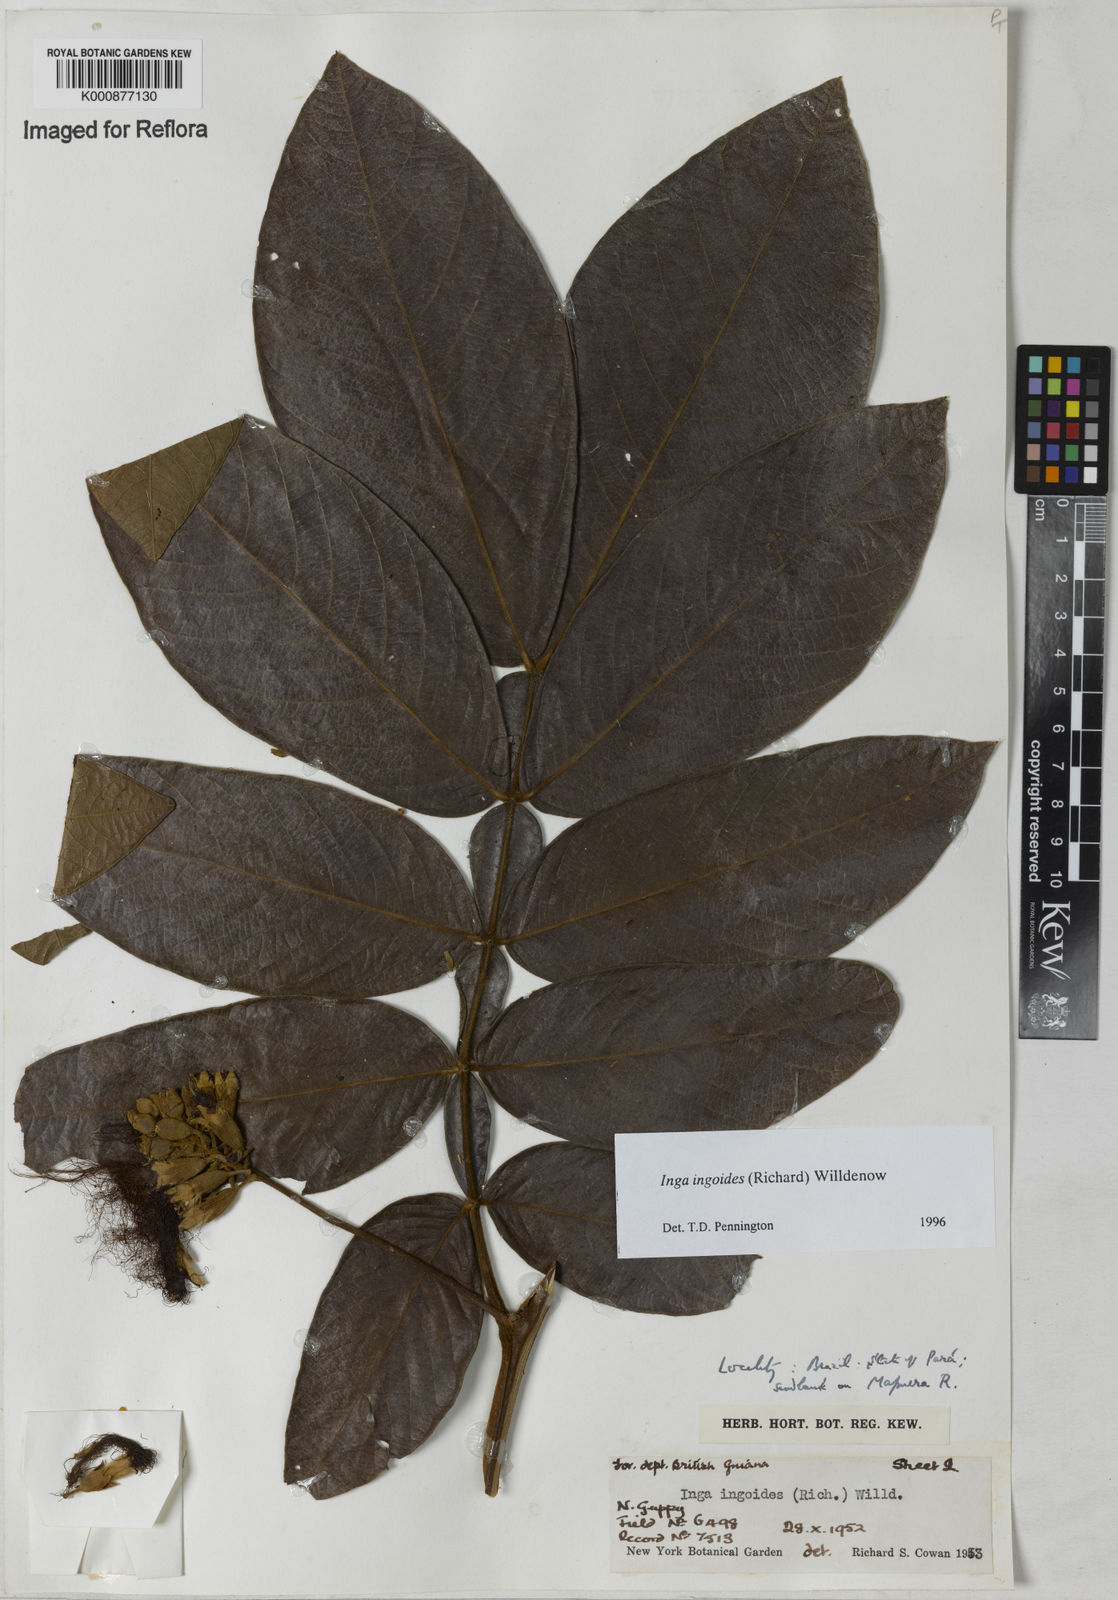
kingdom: Plantae
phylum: Tracheophyta
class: Magnoliopsida
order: Fabales
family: Fabaceae
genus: Inga
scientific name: Inga ingoides
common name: Spanish ash
